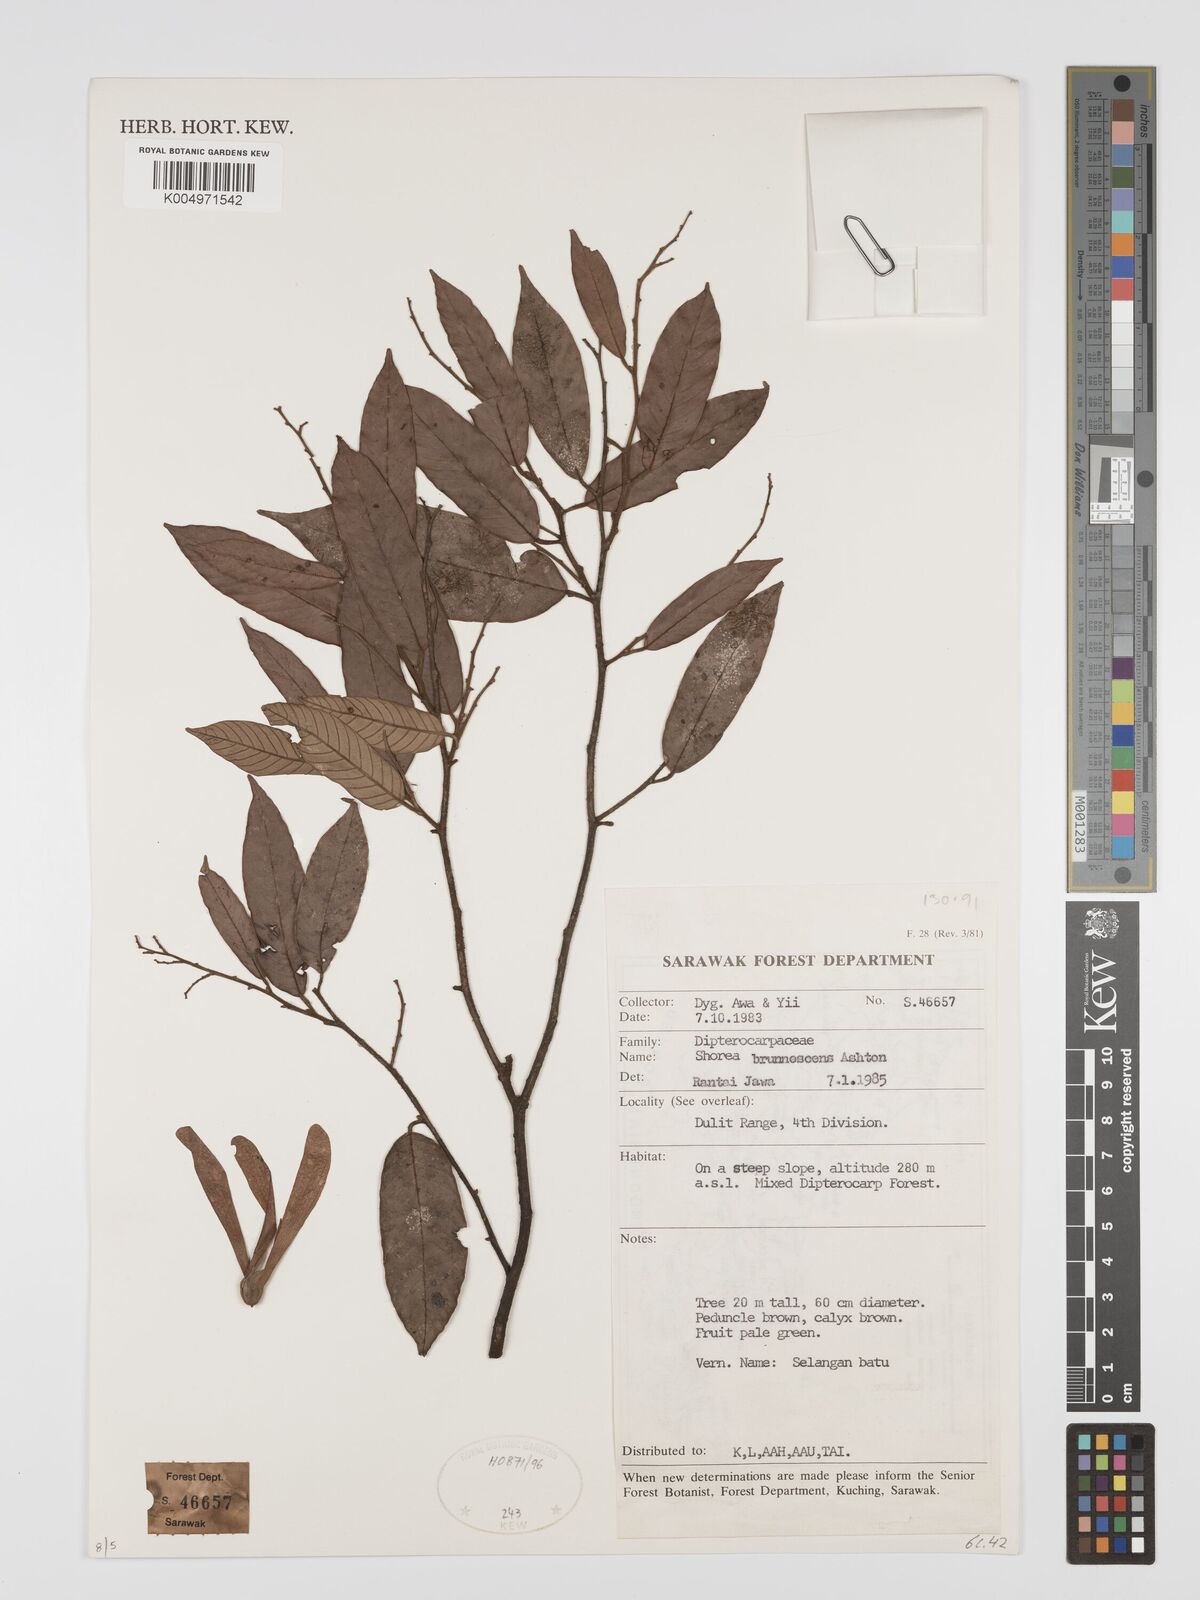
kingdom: Plantae
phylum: Tracheophyta
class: Magnoliopsida
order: Malvales
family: Dipterocarpaceae
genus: Shorea
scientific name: Shorea brunnescens
